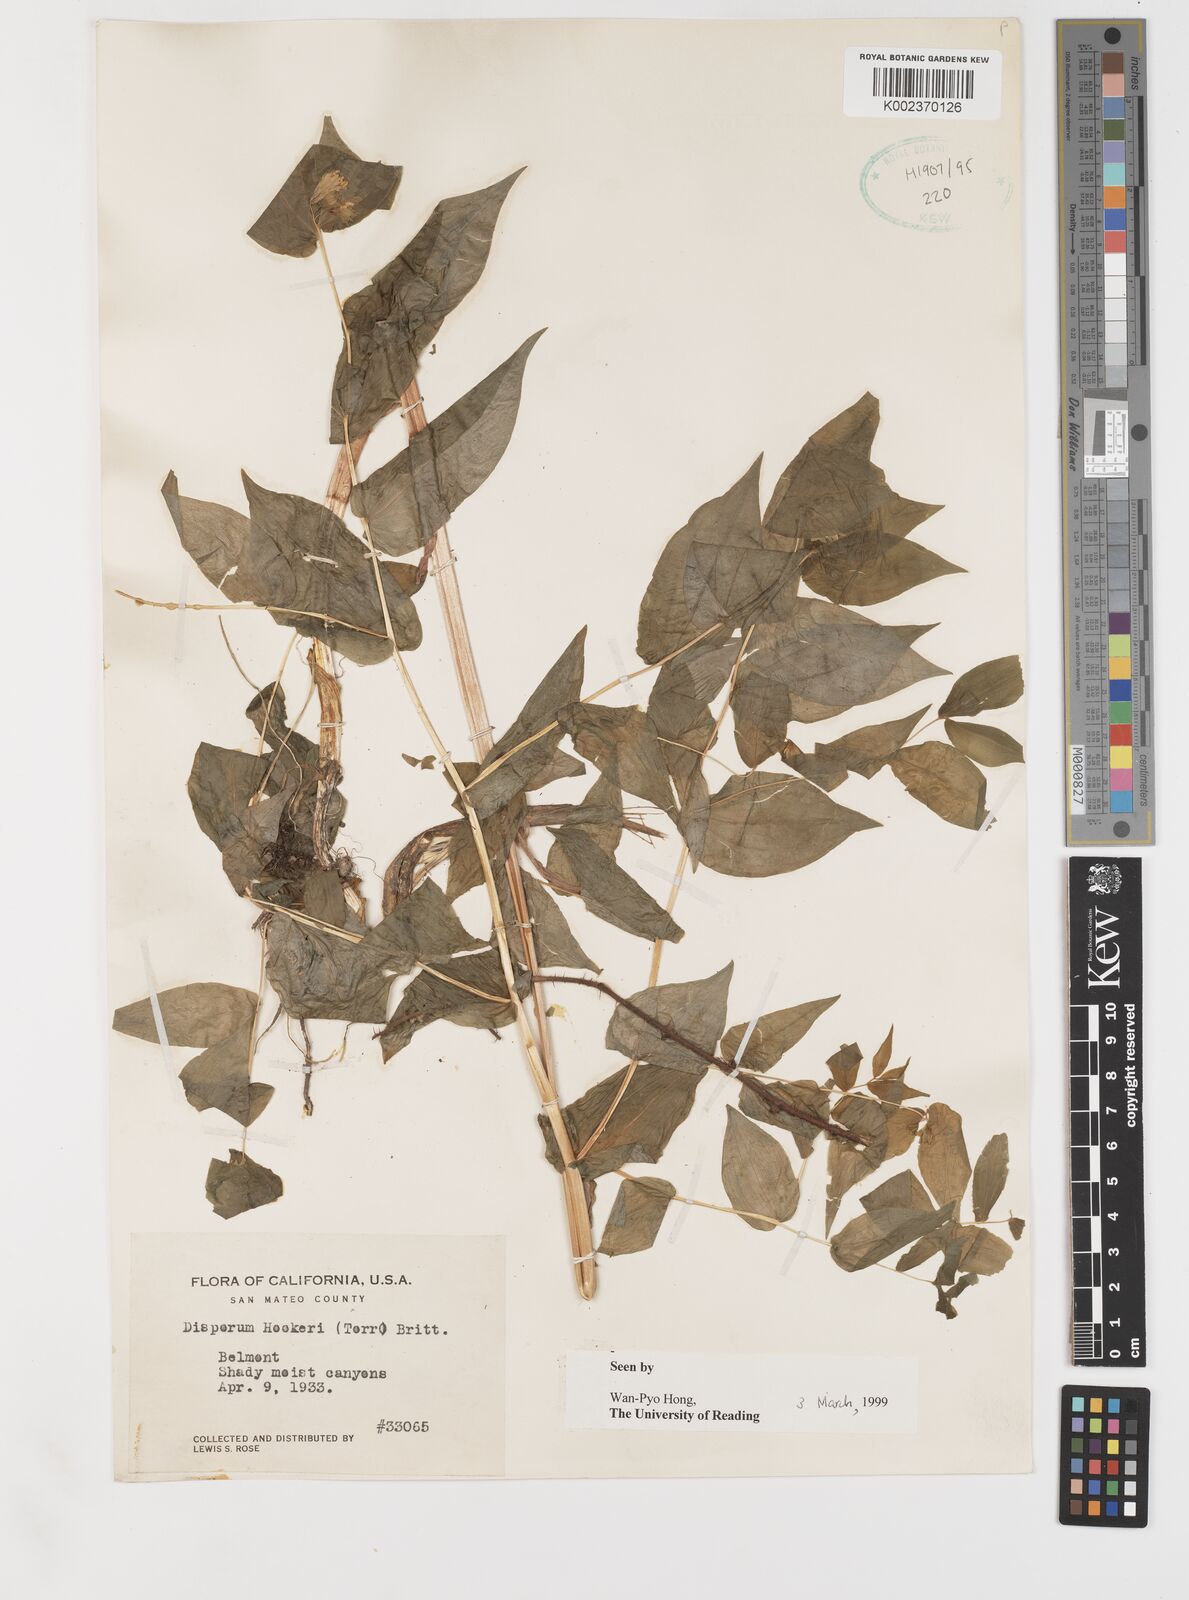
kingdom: Plantae
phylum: Tracheophyta
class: Liliopsida
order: Liliales
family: Liliaceae
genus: Prosartes
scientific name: Prosartes hookeri
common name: Fairy-bells
